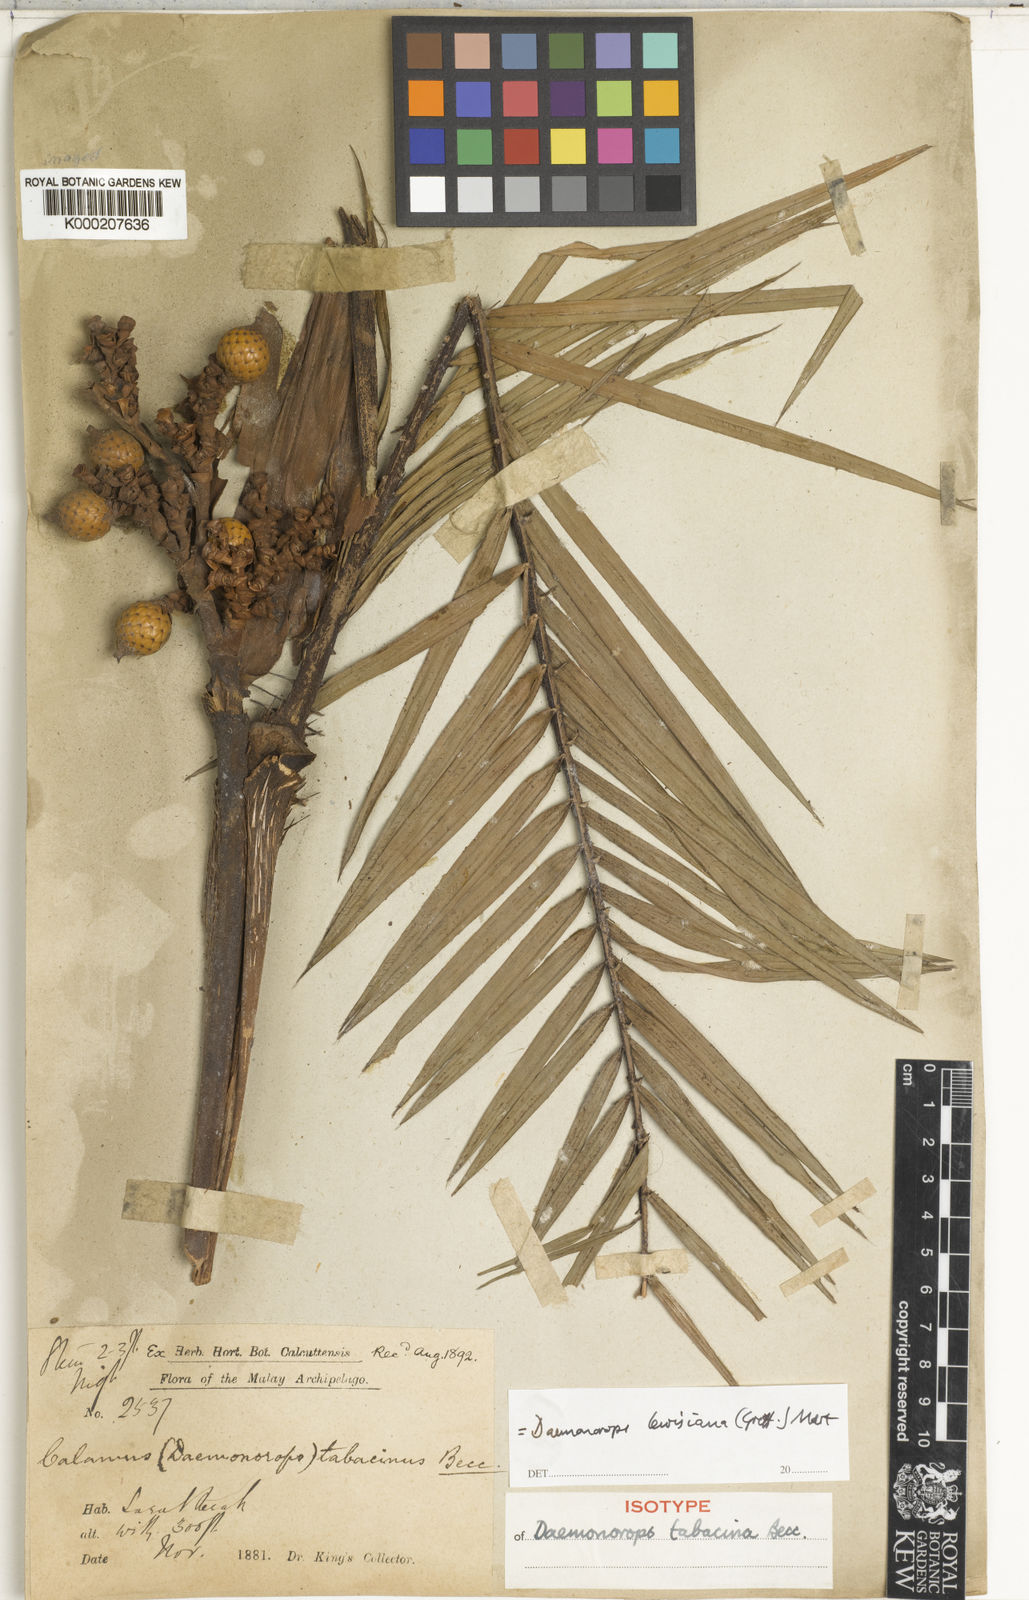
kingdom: Plantae
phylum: Tracheophyta
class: Liliopsida
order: Arecales
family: Arecaceae
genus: Calamus
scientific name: Calamus melanochaetes
